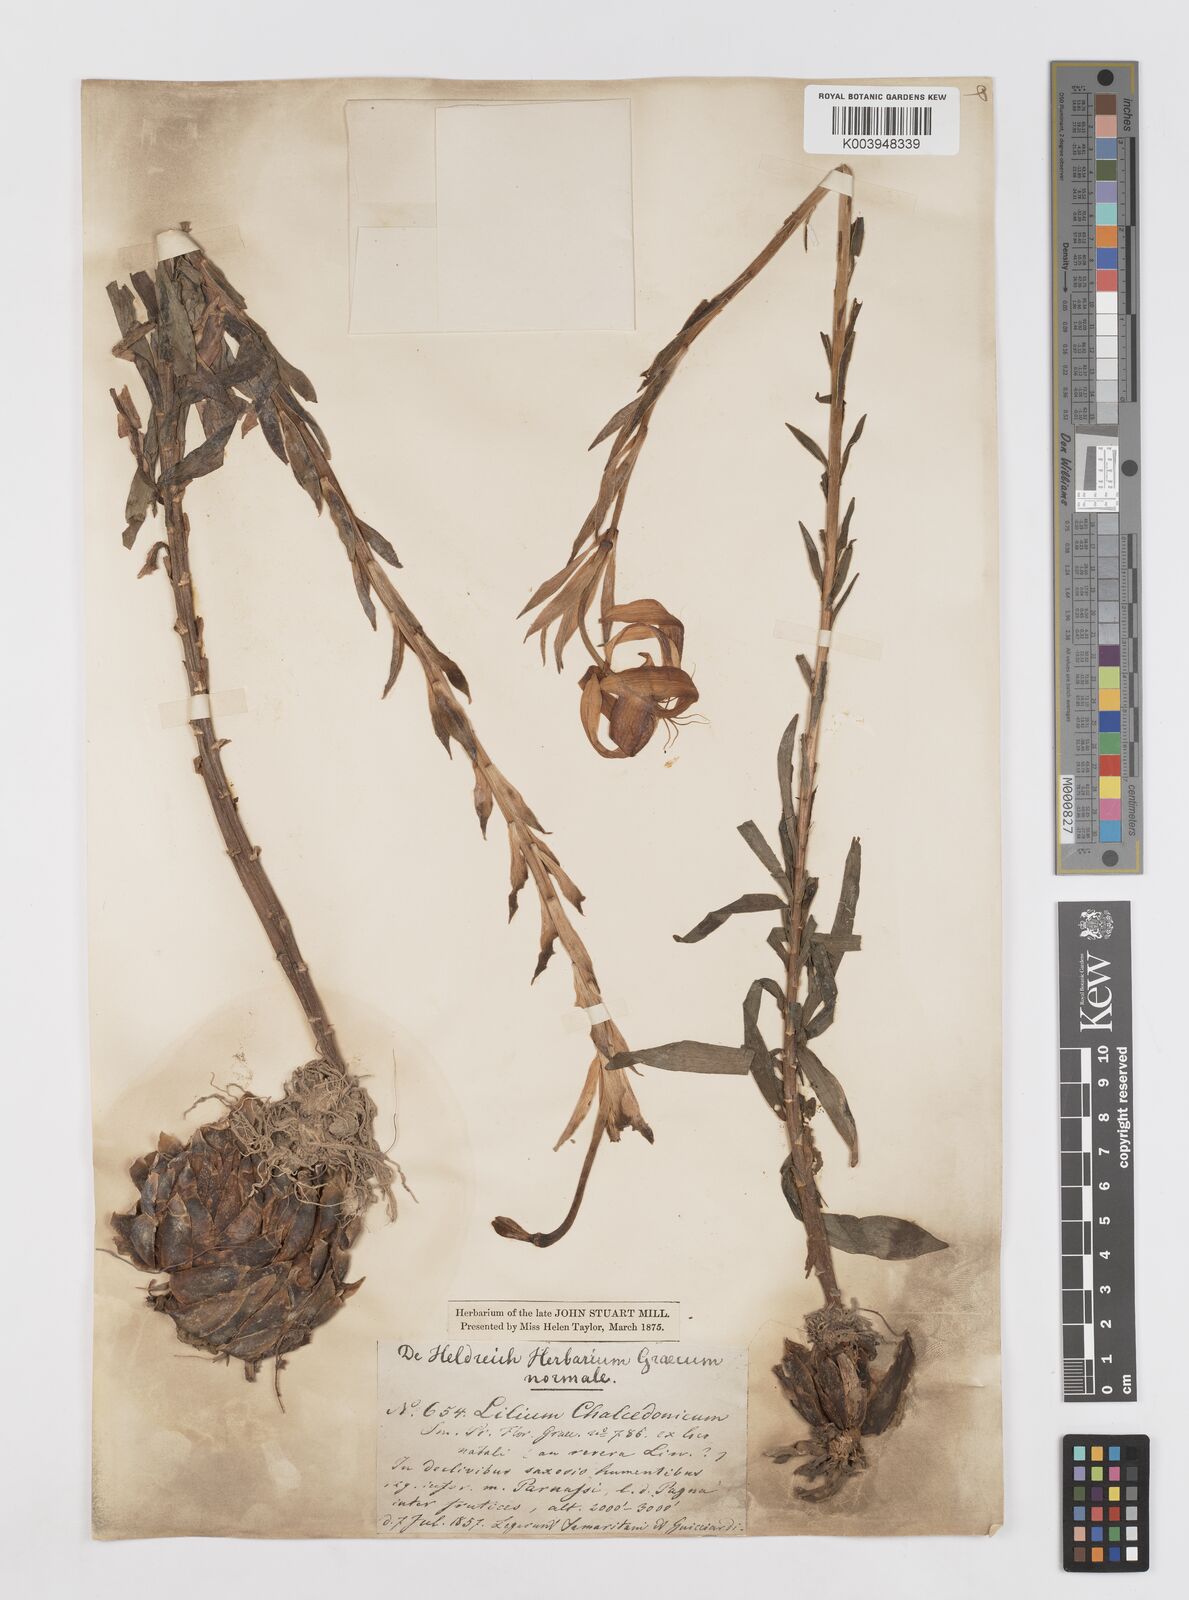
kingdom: Plantae
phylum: Tracheophyta
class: Liliopsida
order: Liliales
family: Liliaceae
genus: Lilium
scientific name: Lilium
